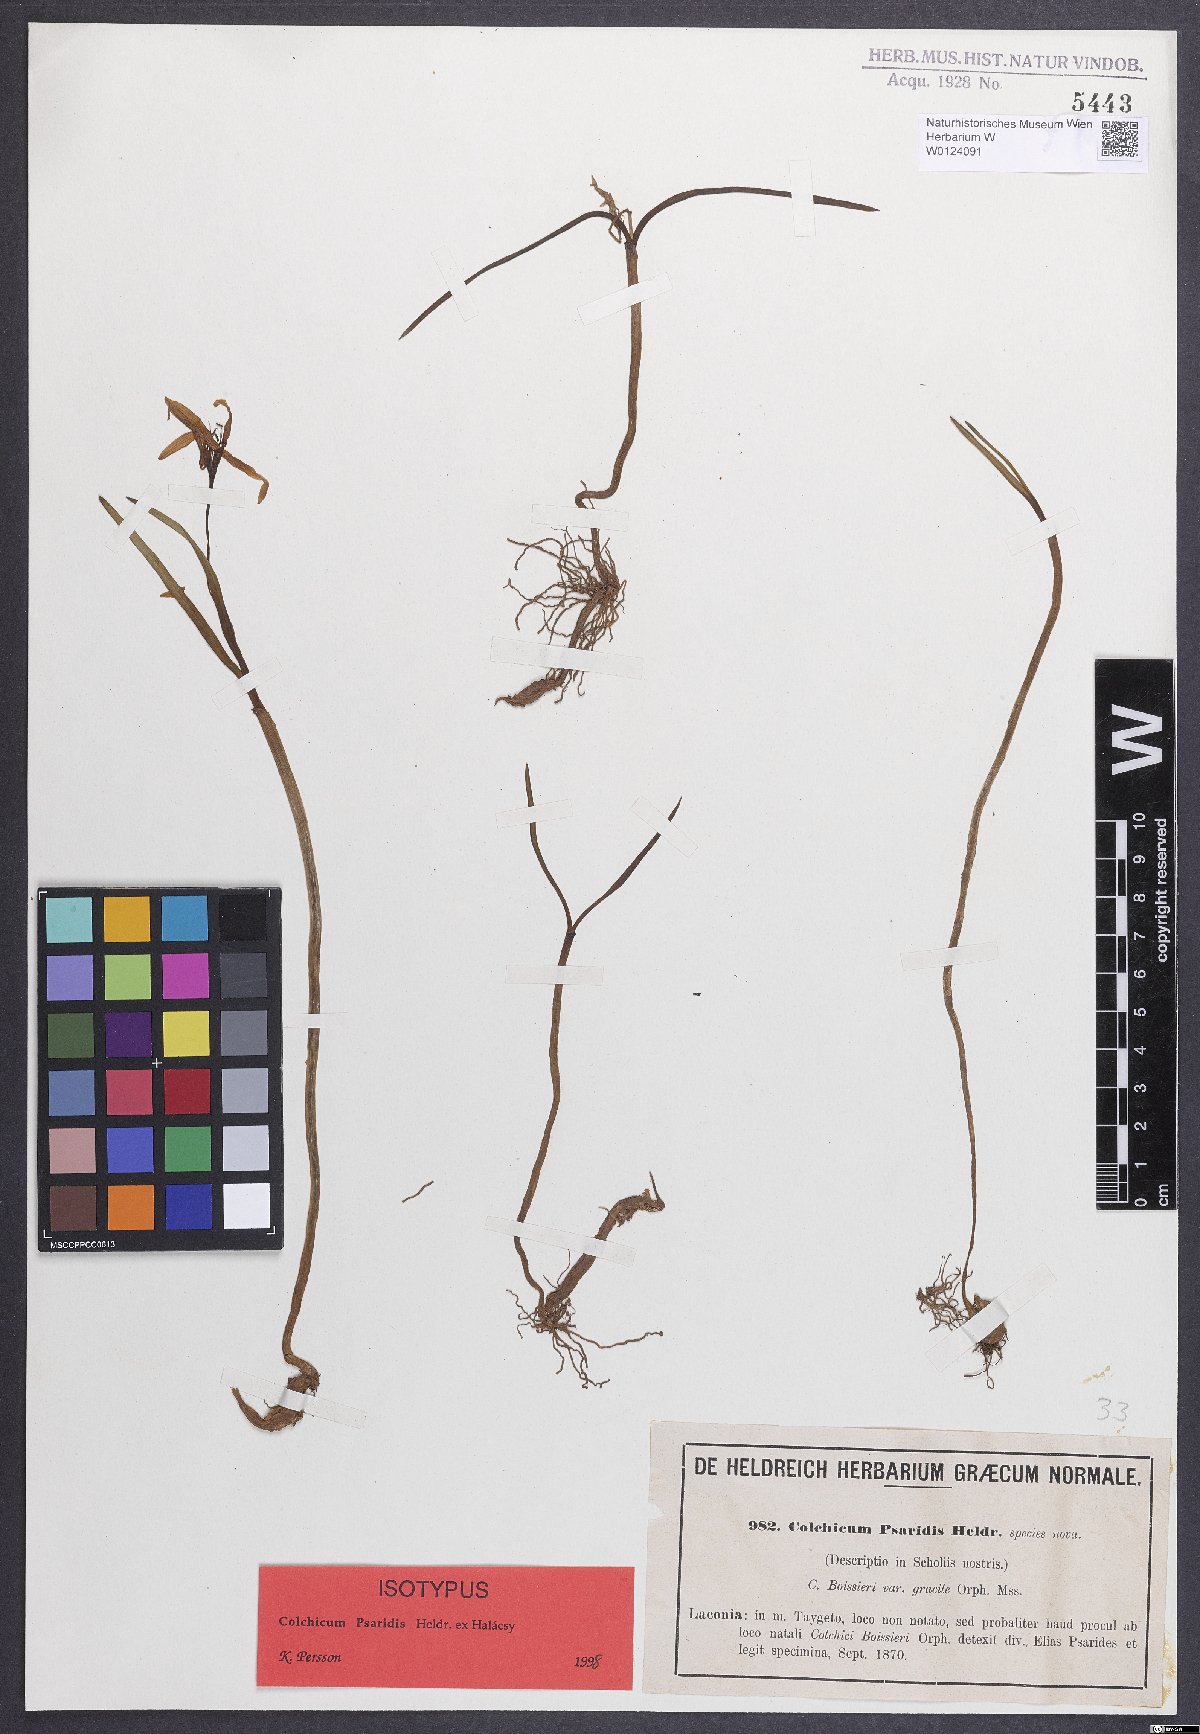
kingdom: Plantae
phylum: Tracheophyta
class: Liliopsida
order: Liliales
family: Colchicaceae
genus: Colchicum
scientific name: Colchicum zahnii
